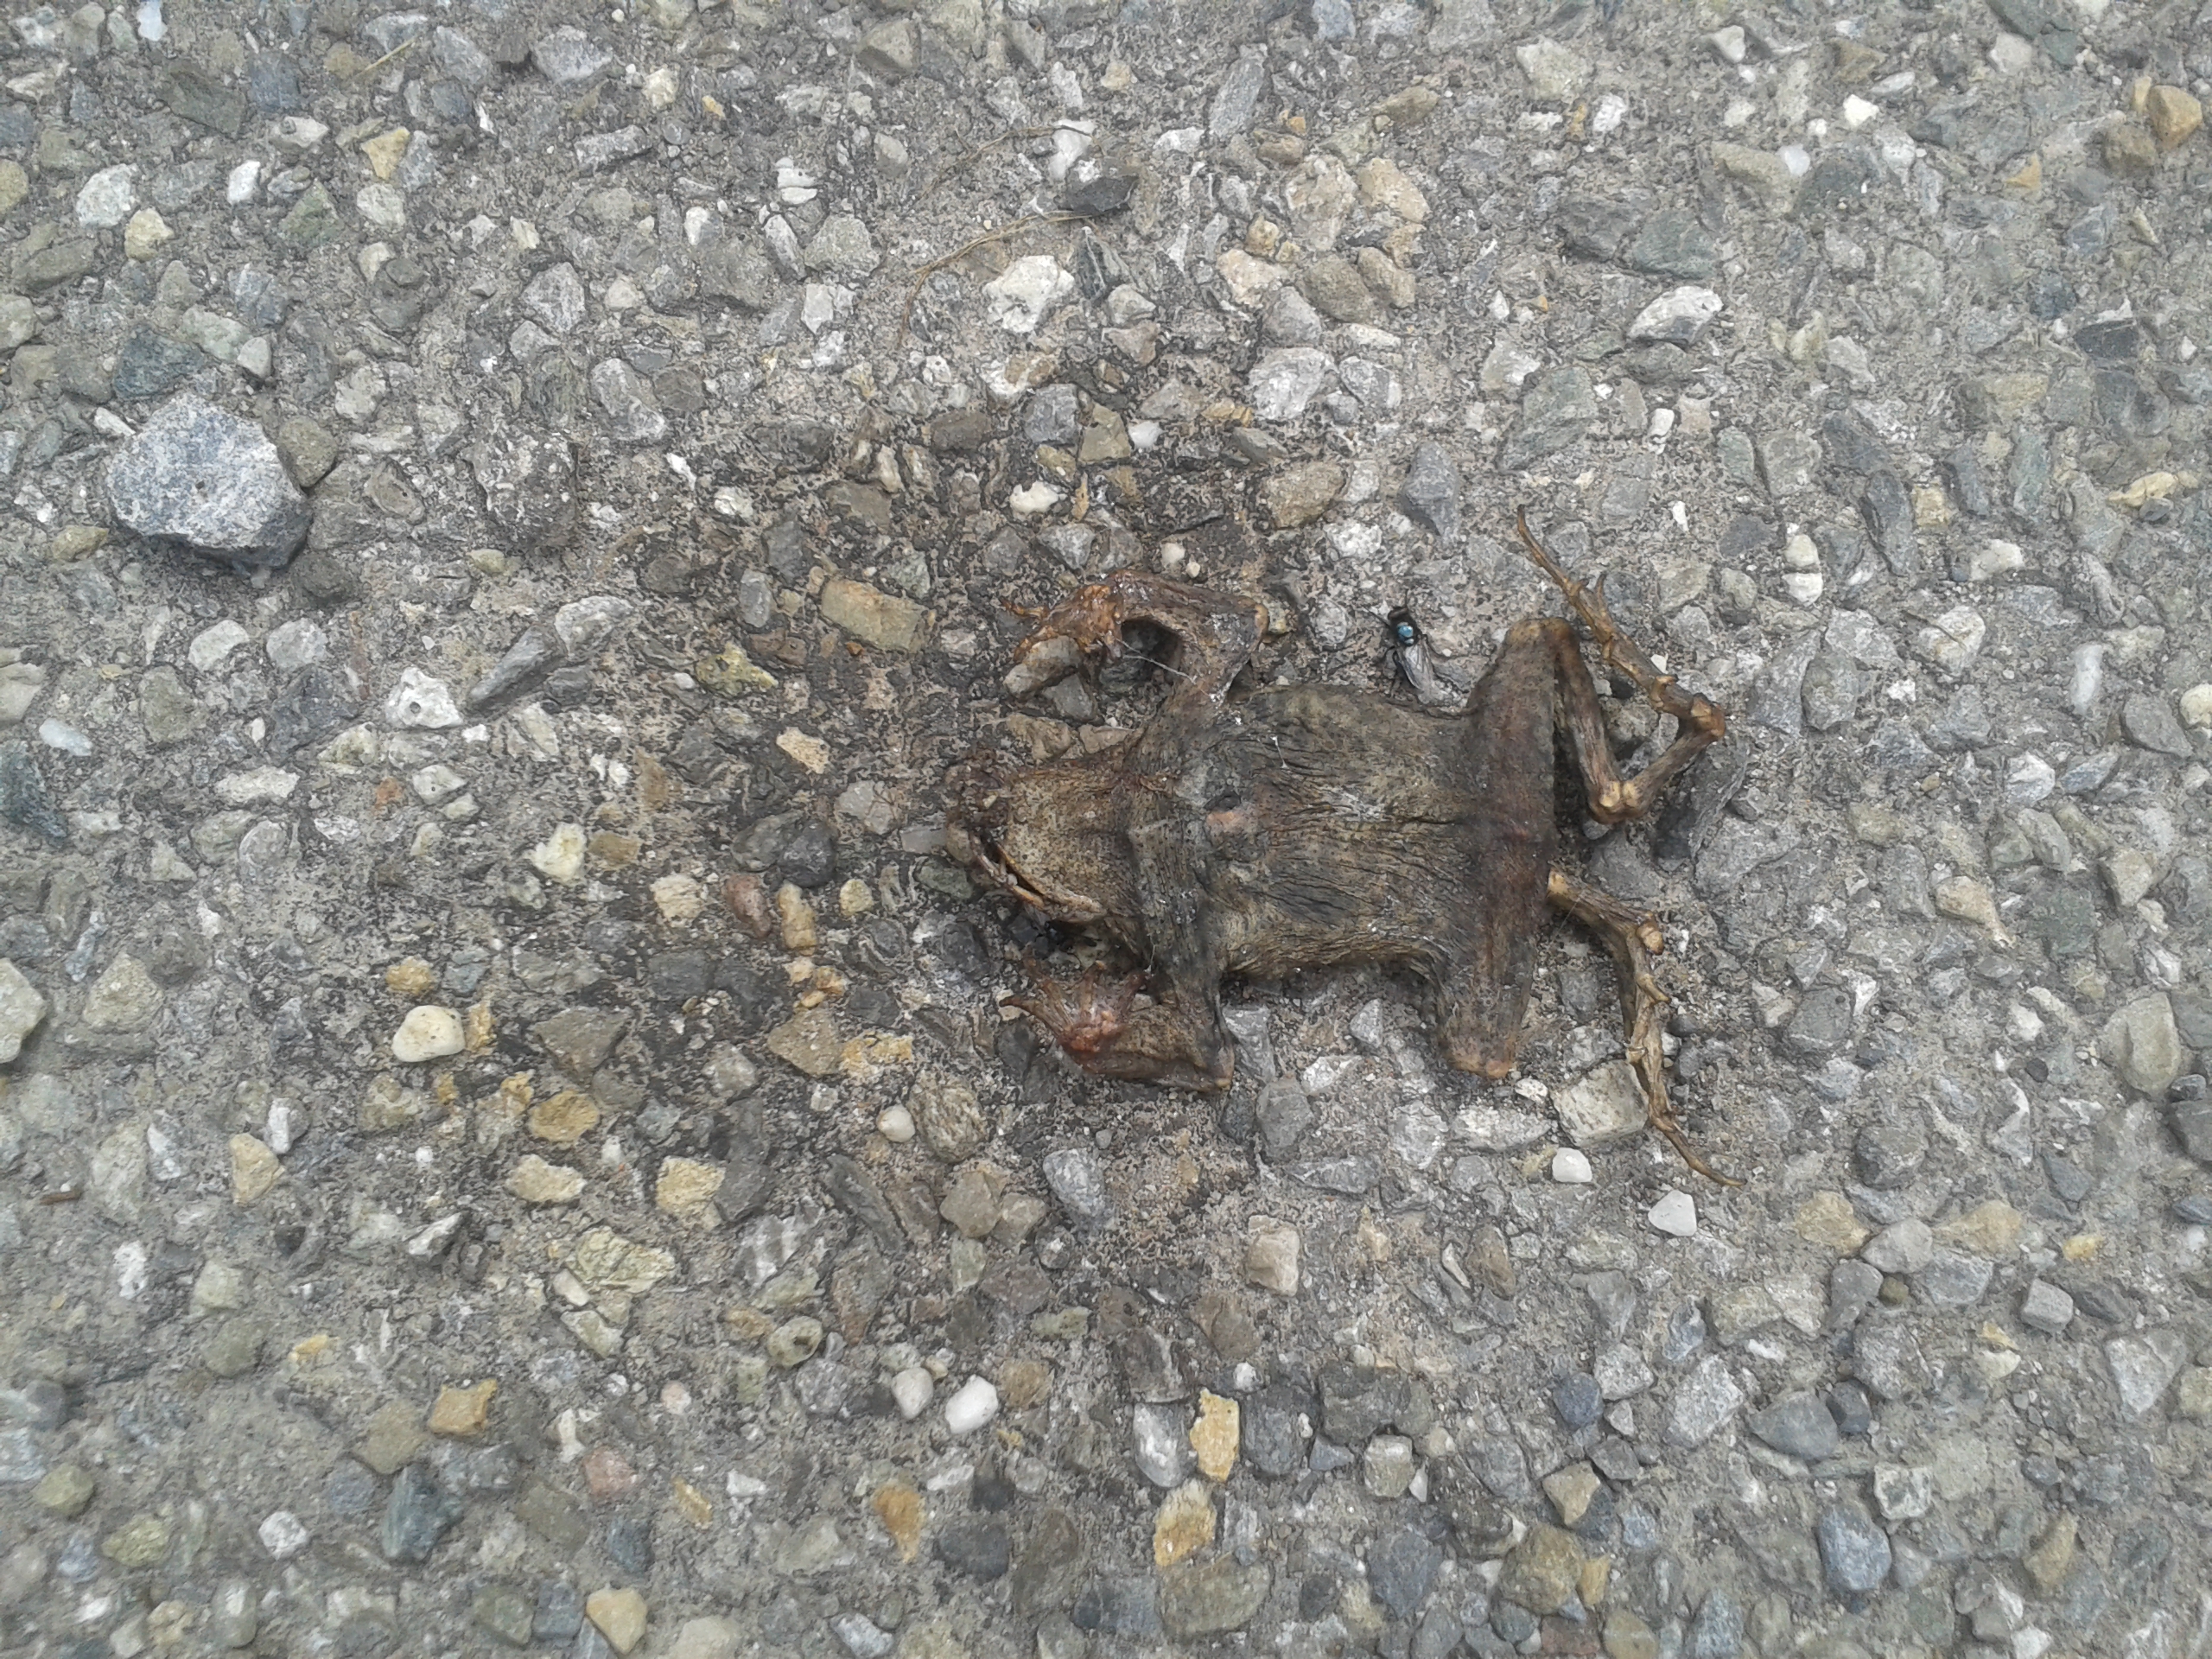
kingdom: Animalia
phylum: Chordata
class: Amphibia
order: Anura
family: Bufonidae
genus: Bufo
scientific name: Bufo bufo
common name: Common toad
